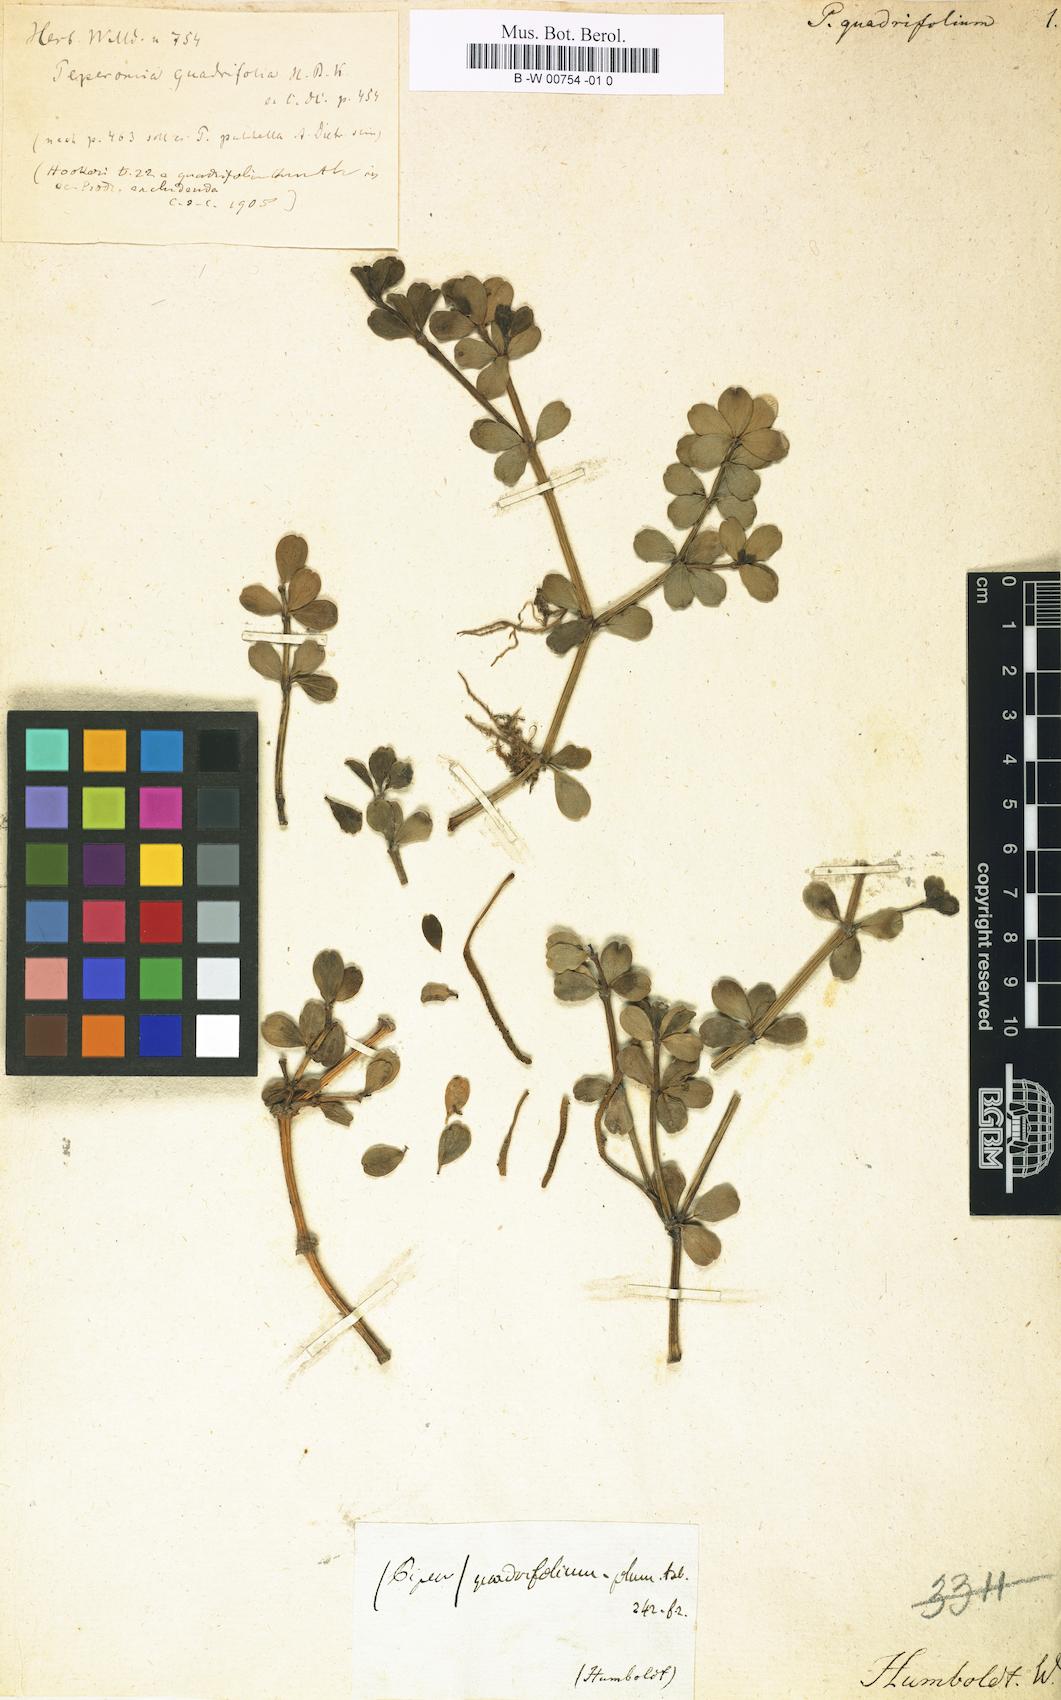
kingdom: Plantae
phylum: Tracheophyta
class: Magnoliopsida
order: Piperales
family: Piperaceae
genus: Peperomia
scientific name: Peperomia quadrifolia
